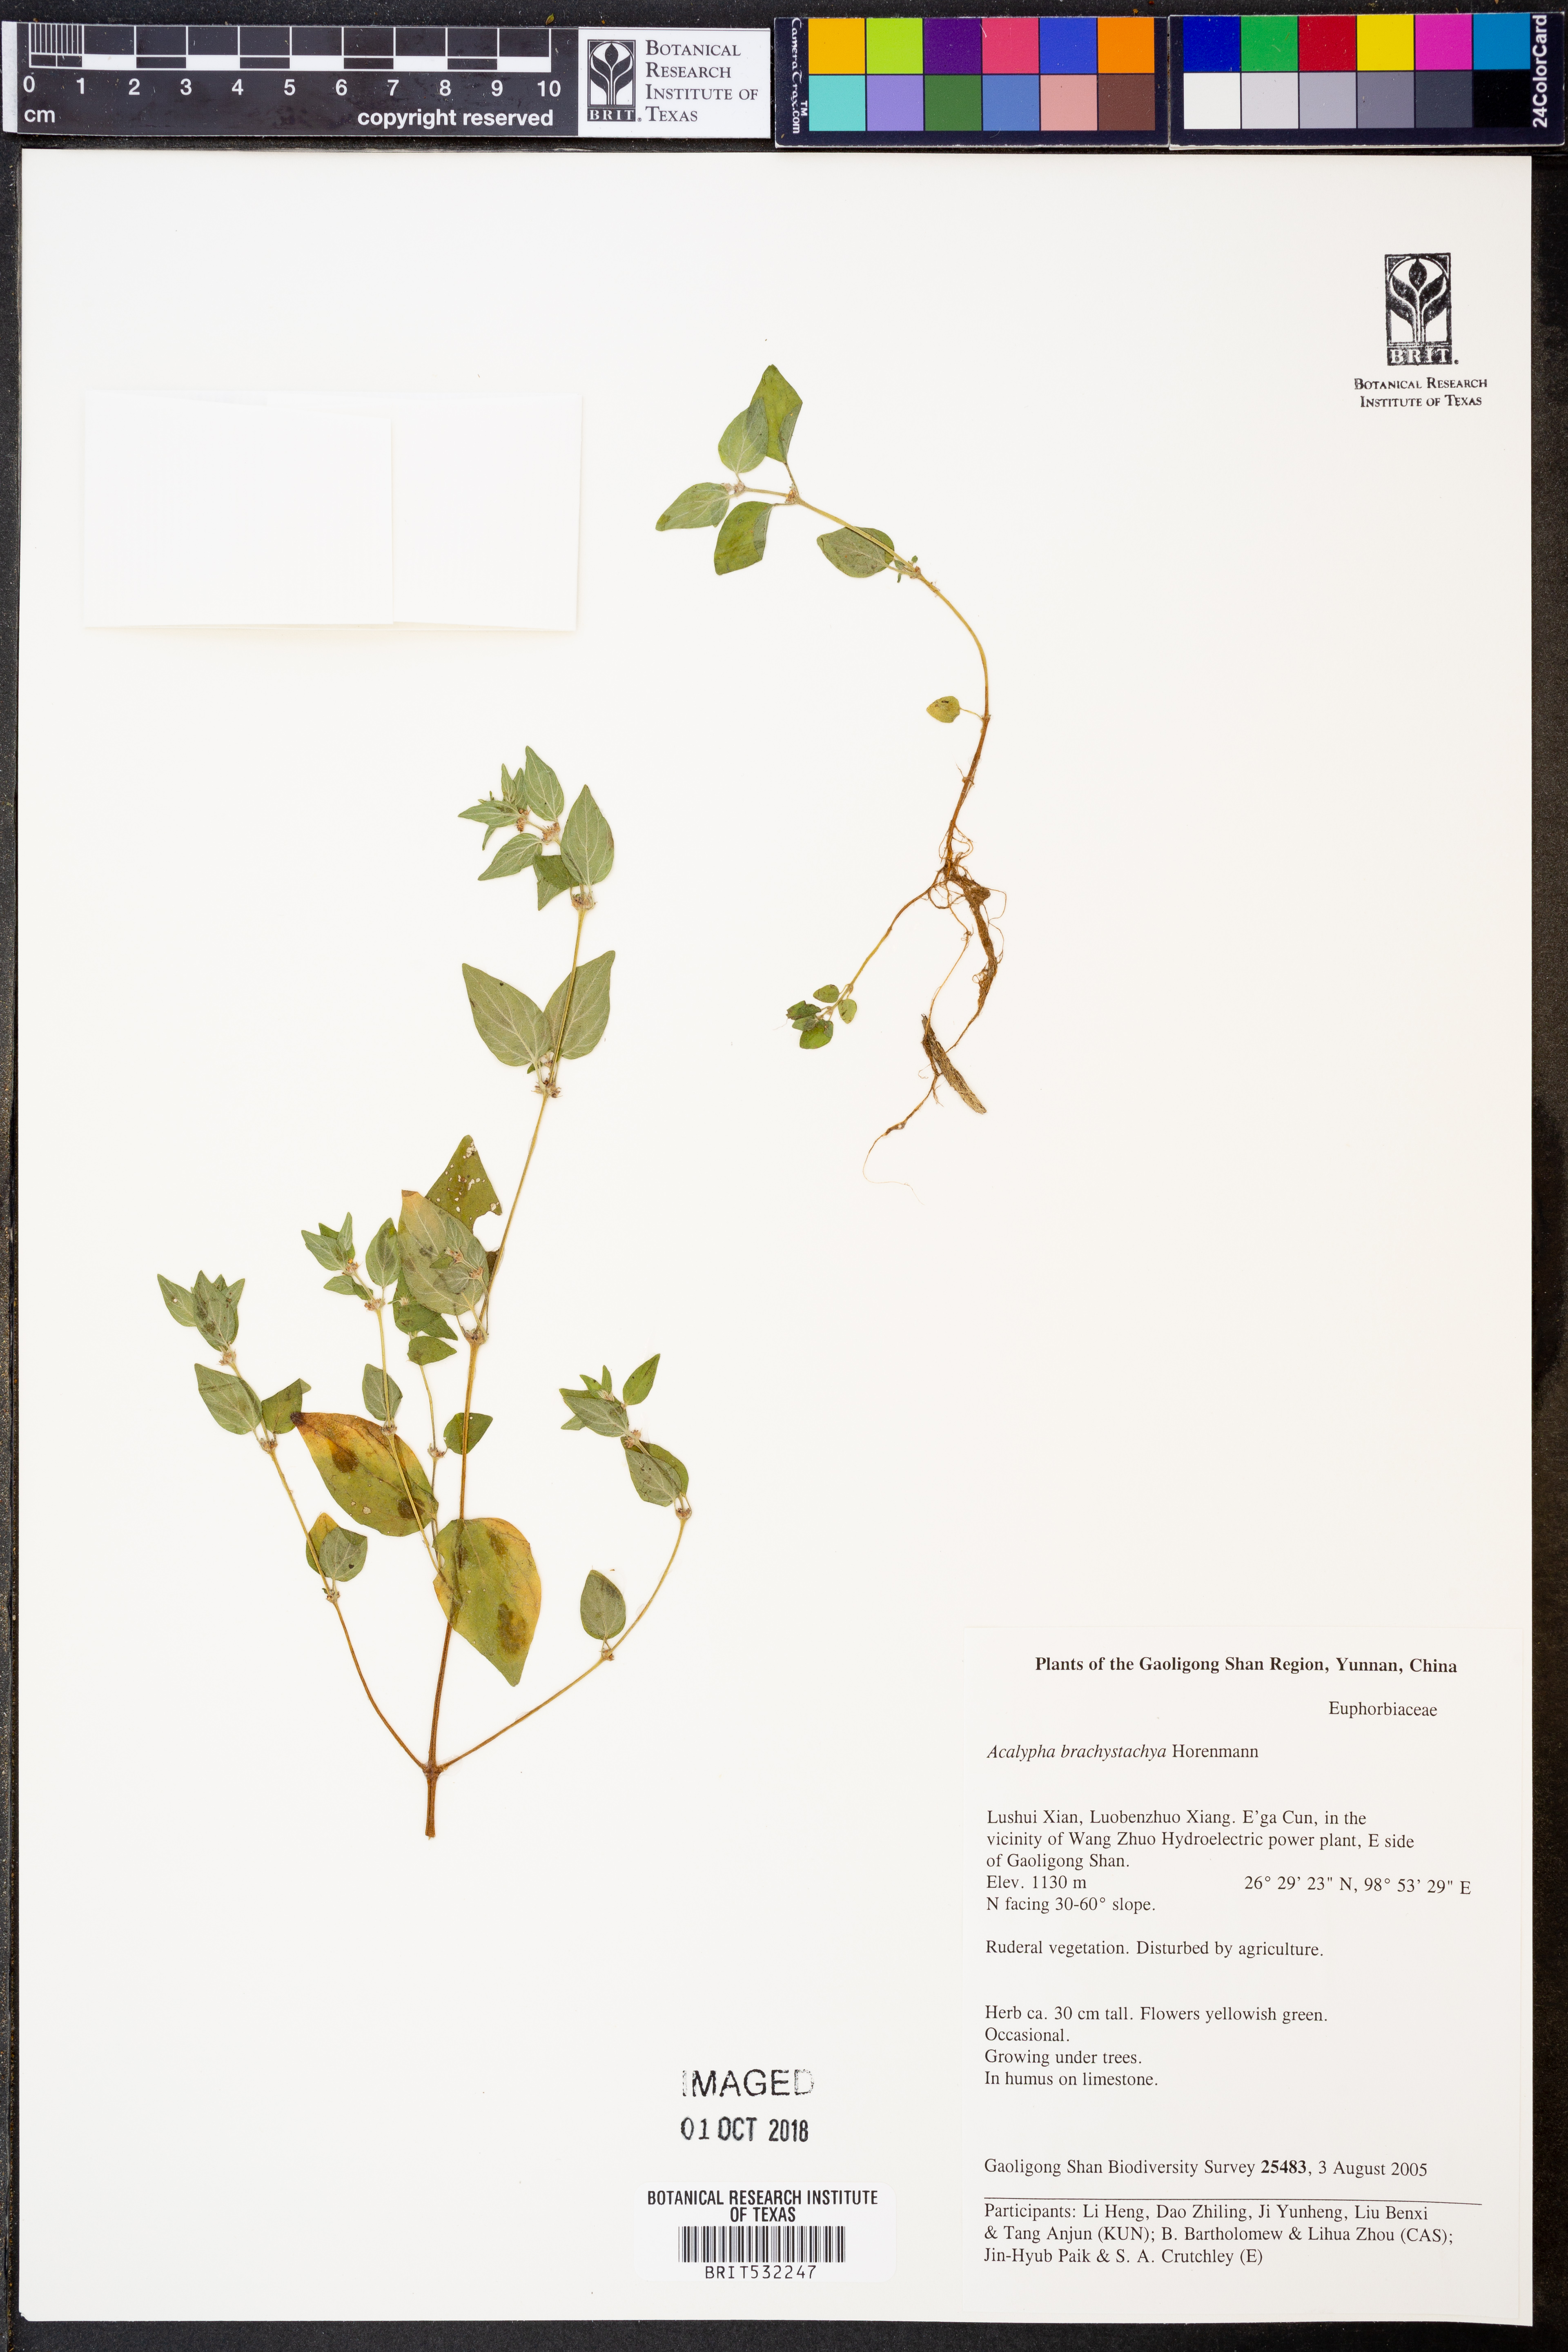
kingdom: Plantae
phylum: Tracheophyta
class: Magnoliopsida
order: Rosales
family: Urticaceae
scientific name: Urticaceae
